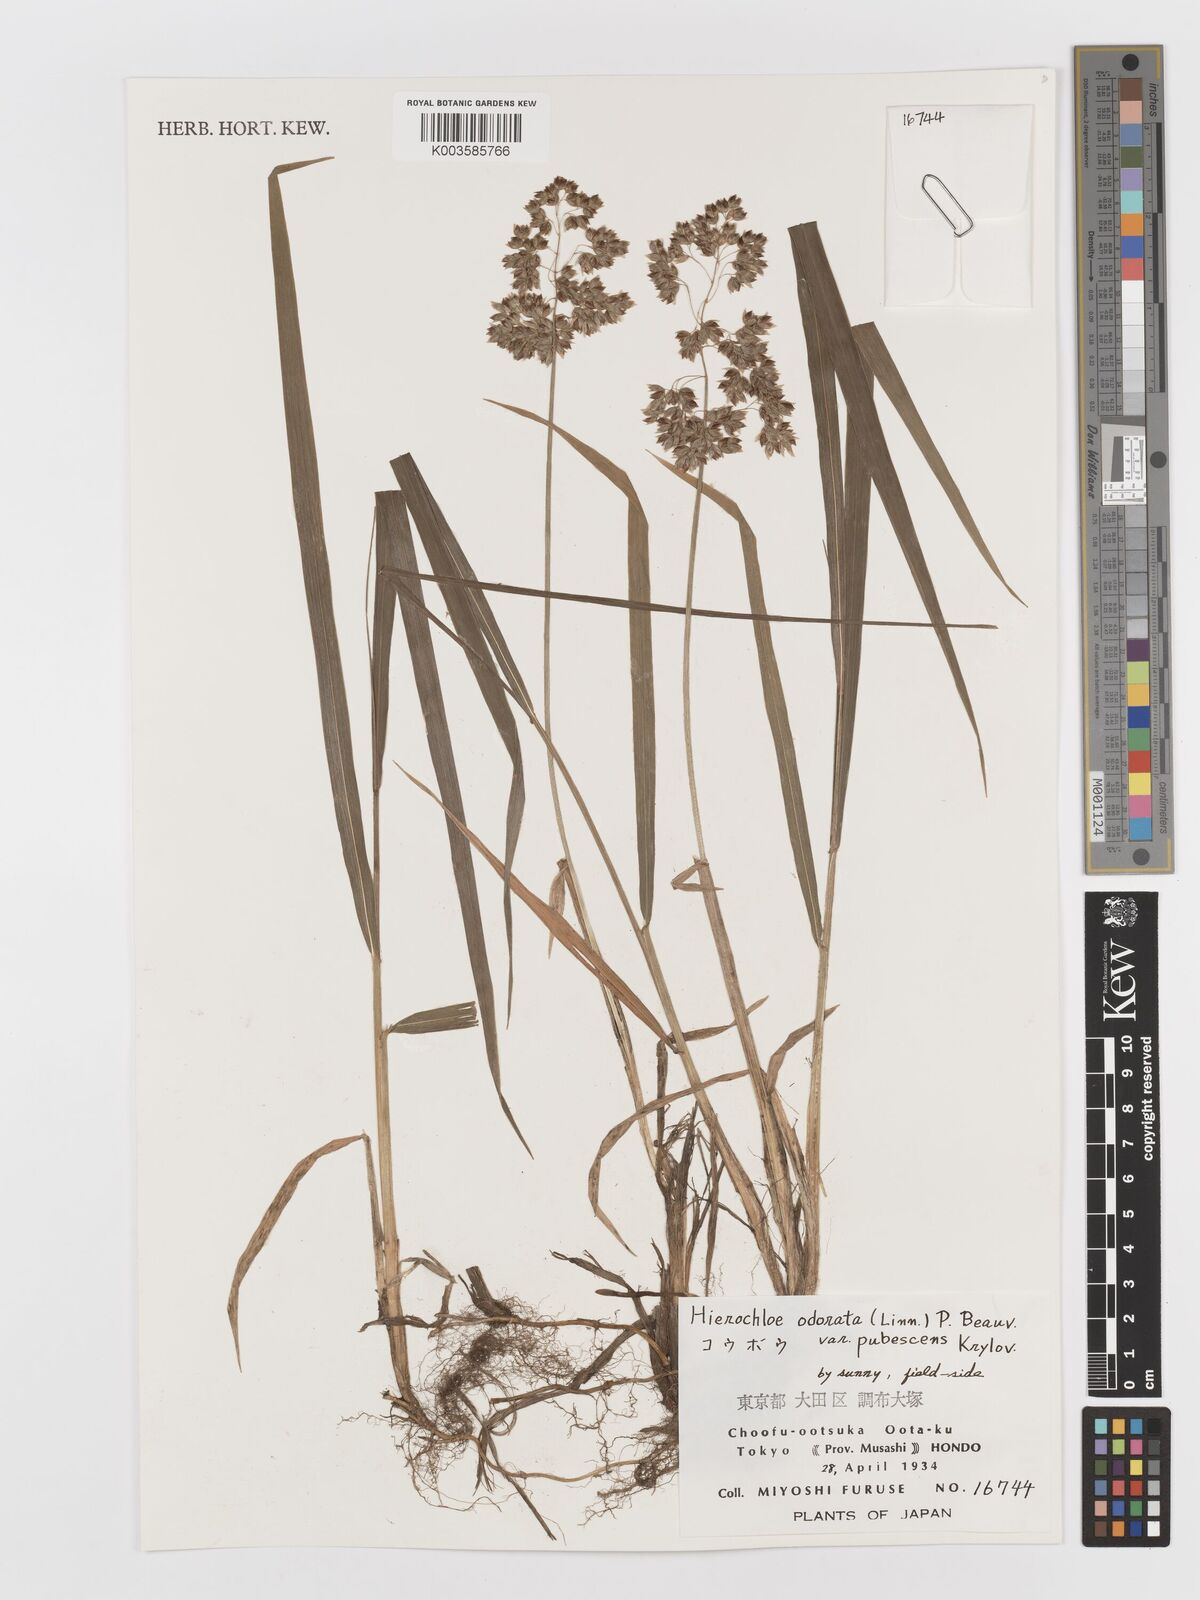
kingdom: Plantae
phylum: Tracheophyta
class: Liliopsida
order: Poales
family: Poaceae
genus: Anthoxanthum
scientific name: Anthoxanthum nitens
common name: Holy grass
